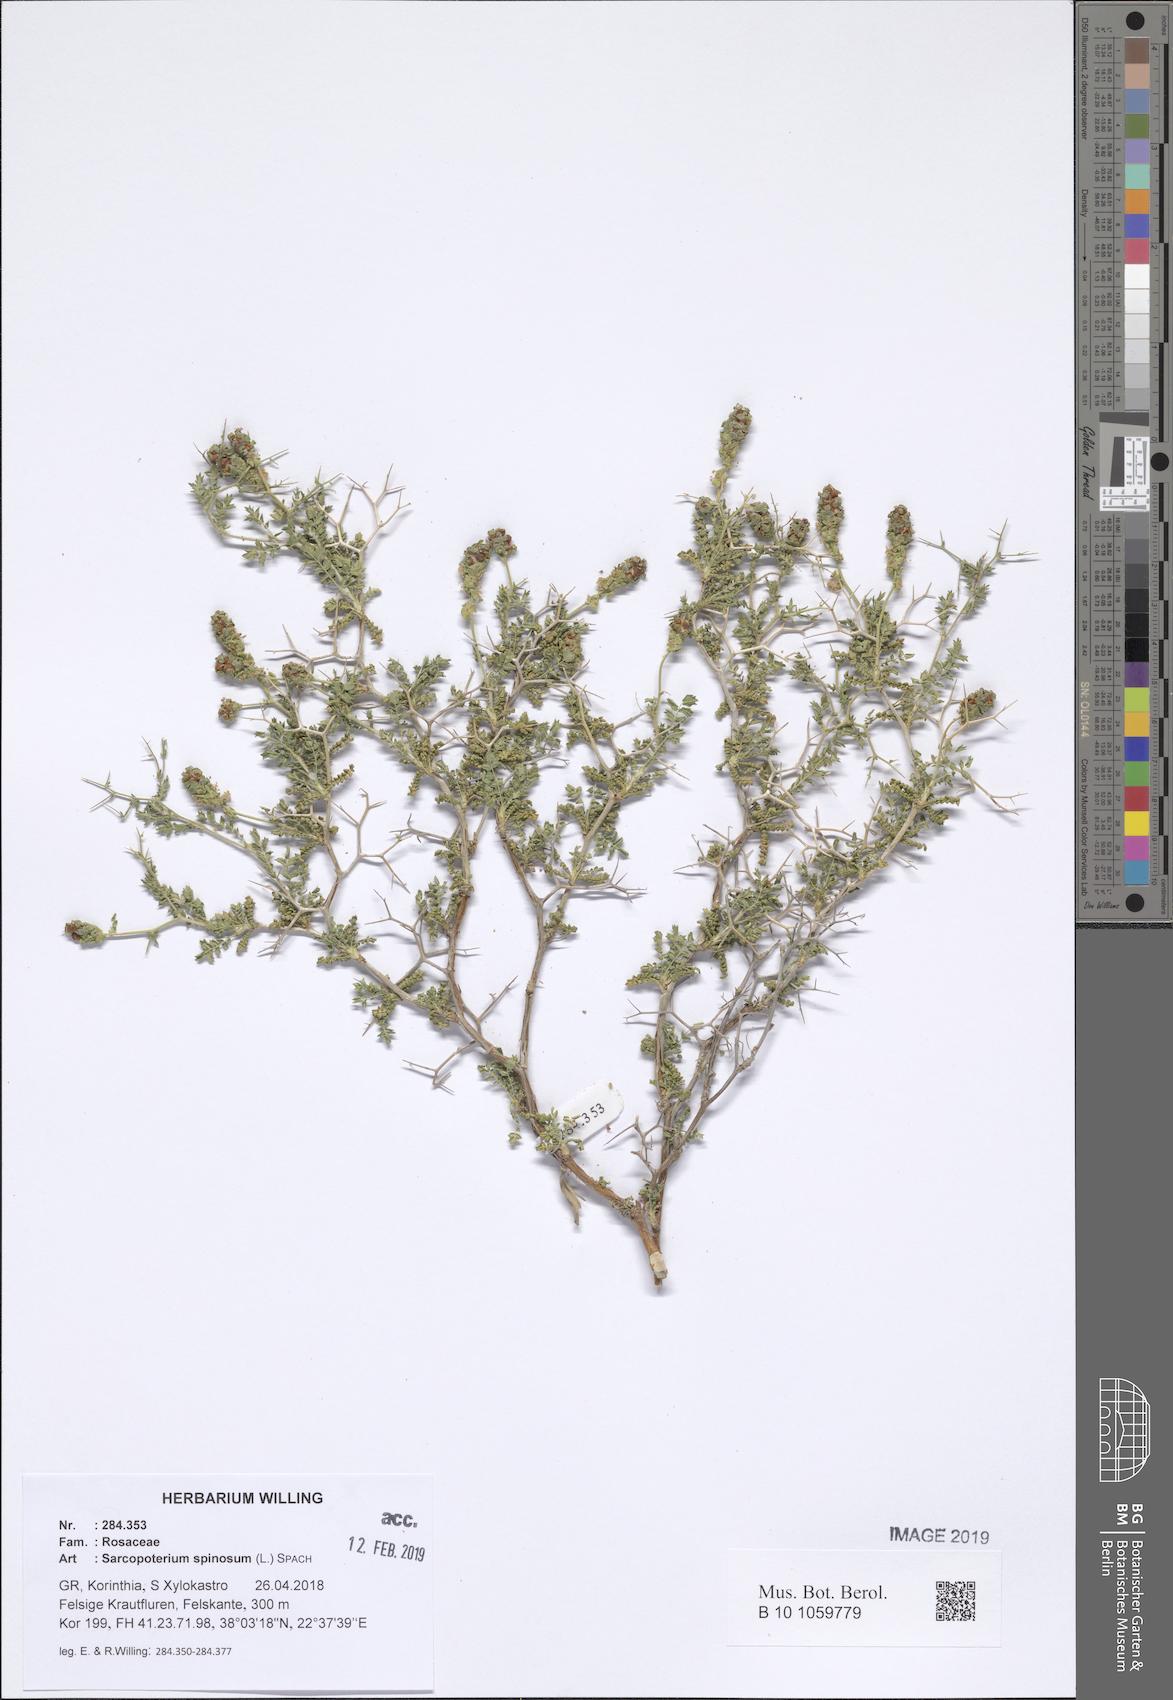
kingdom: Plantae
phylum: Tracheophyta
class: Magnoliopsida
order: Rosales
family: Rosaceae
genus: Sarcopoterium
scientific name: Sarcopoterium spinosum
